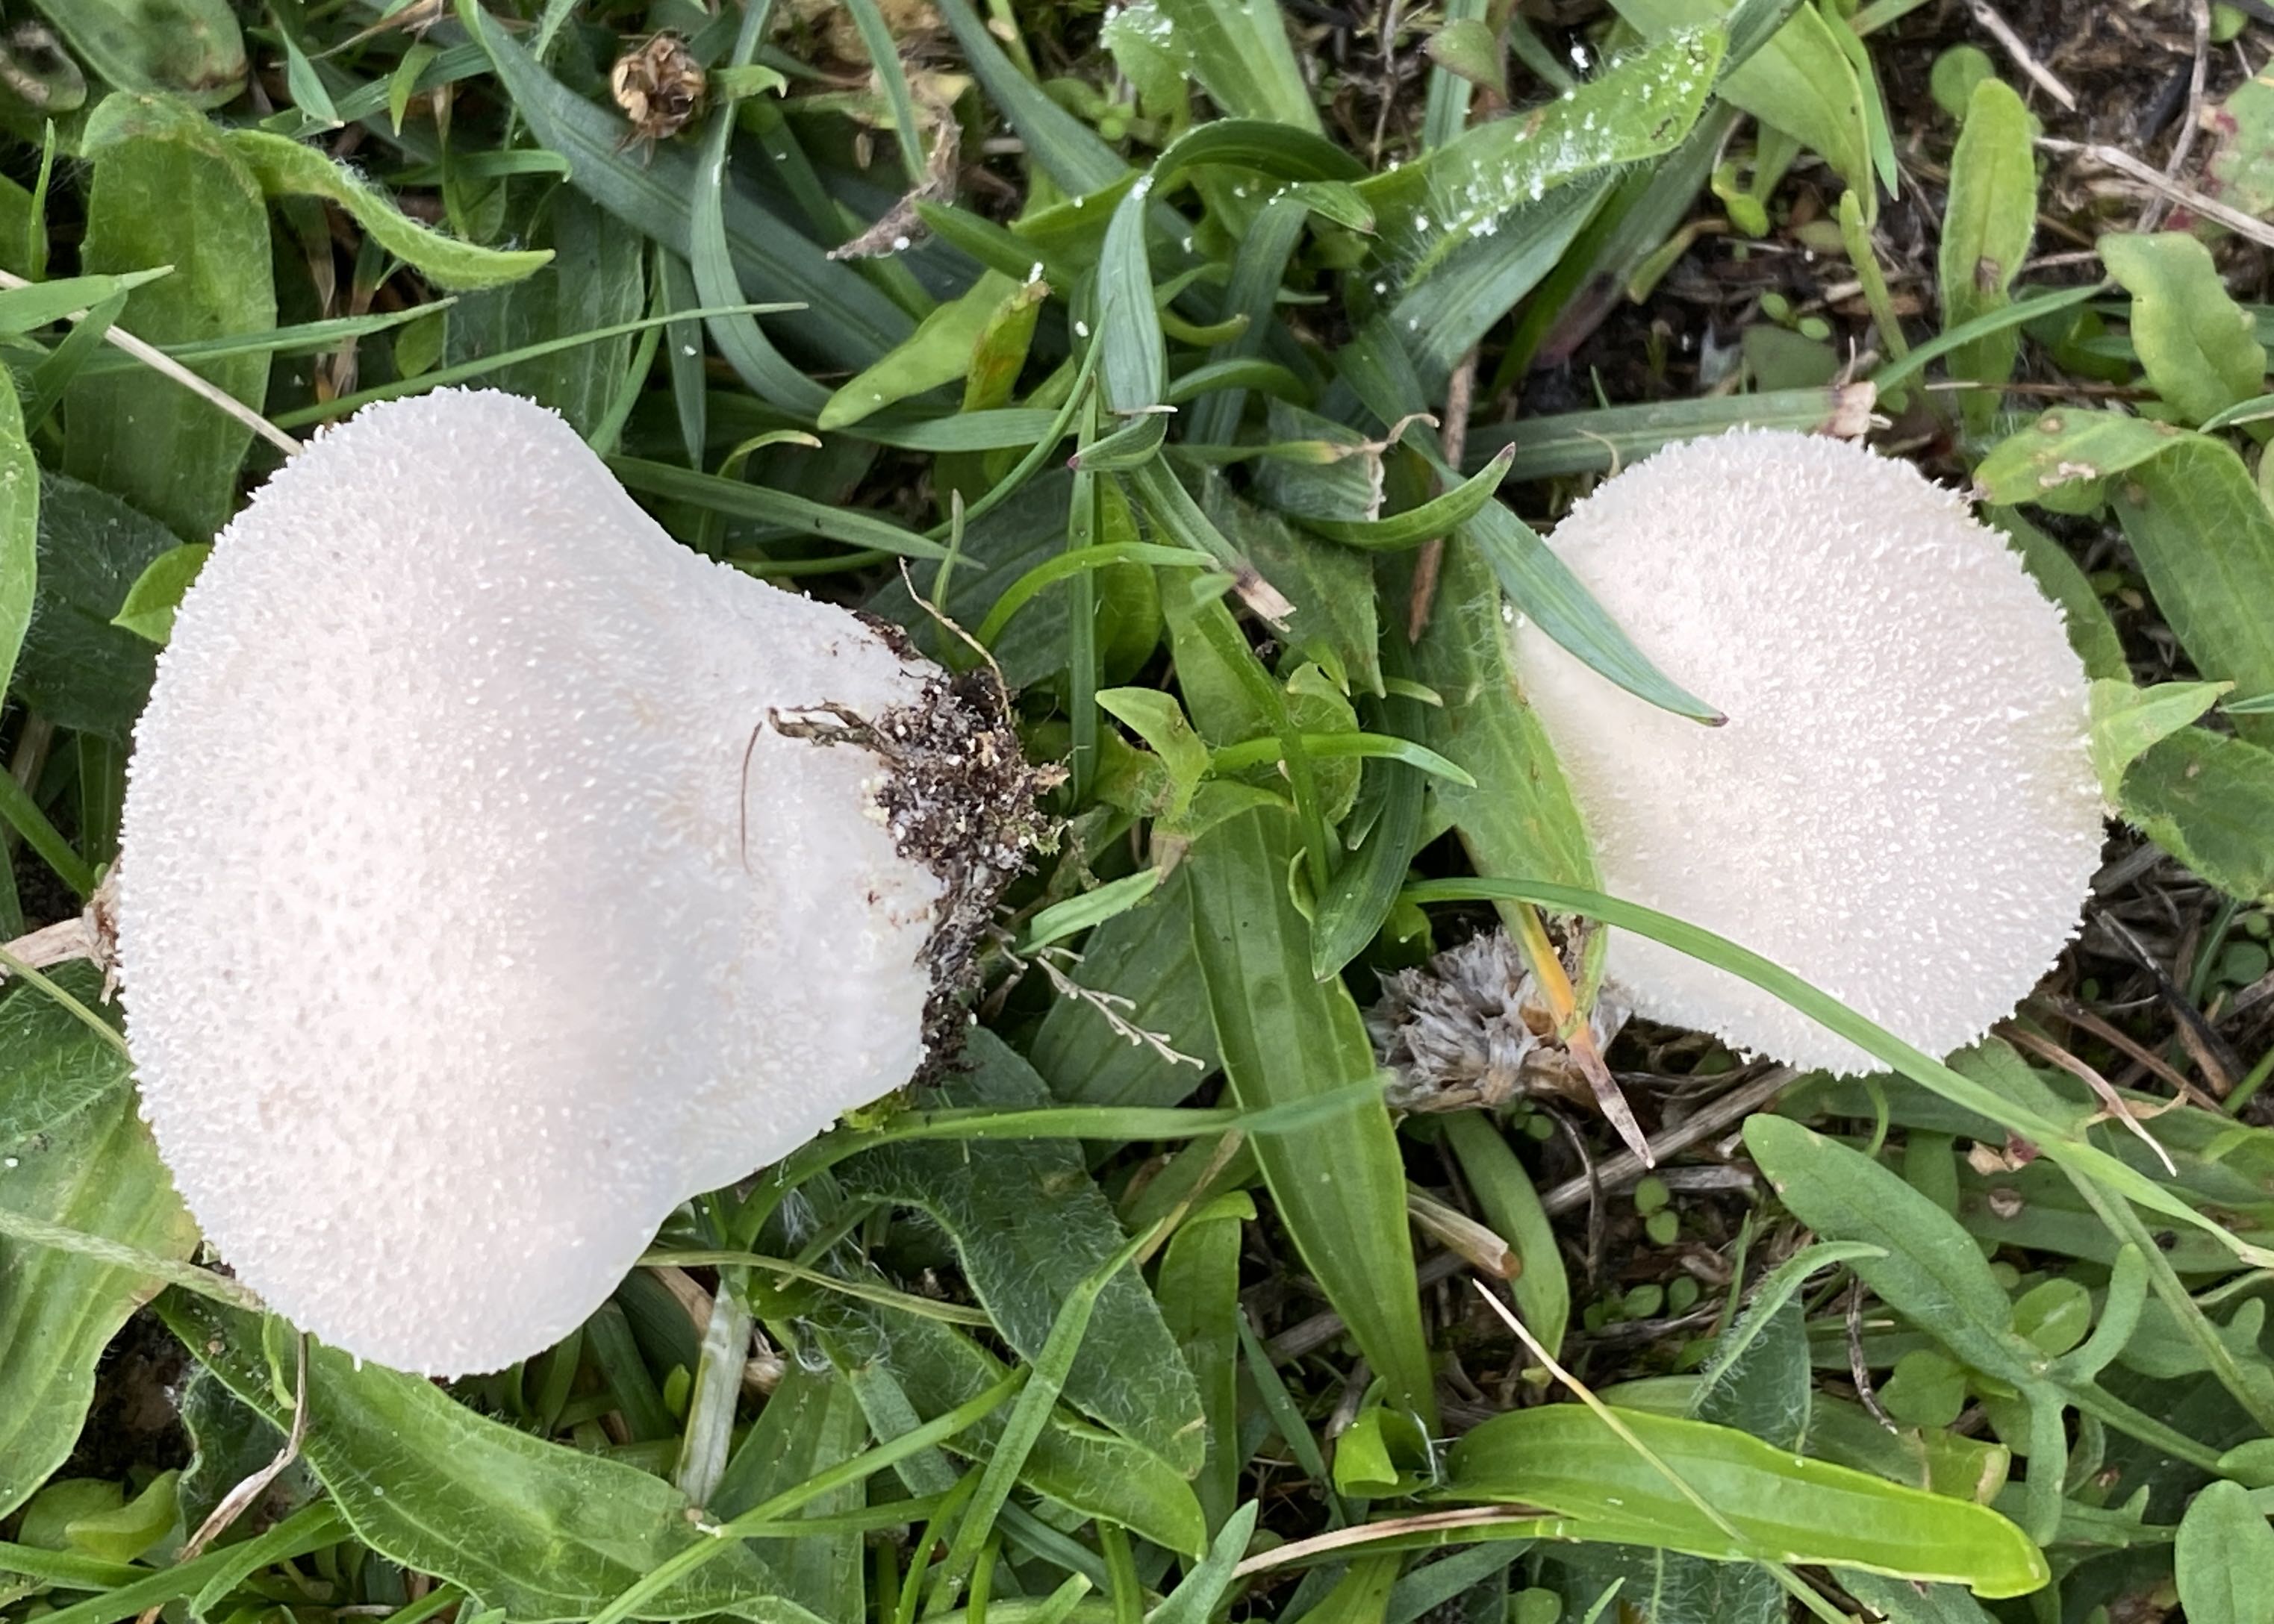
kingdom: Fungi
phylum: Basidiomycota
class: Agaricomycetes
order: Agaricales
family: Lycoperdaceae
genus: Lycoperdon
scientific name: Lycoperdon pratense
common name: flad støvbold
